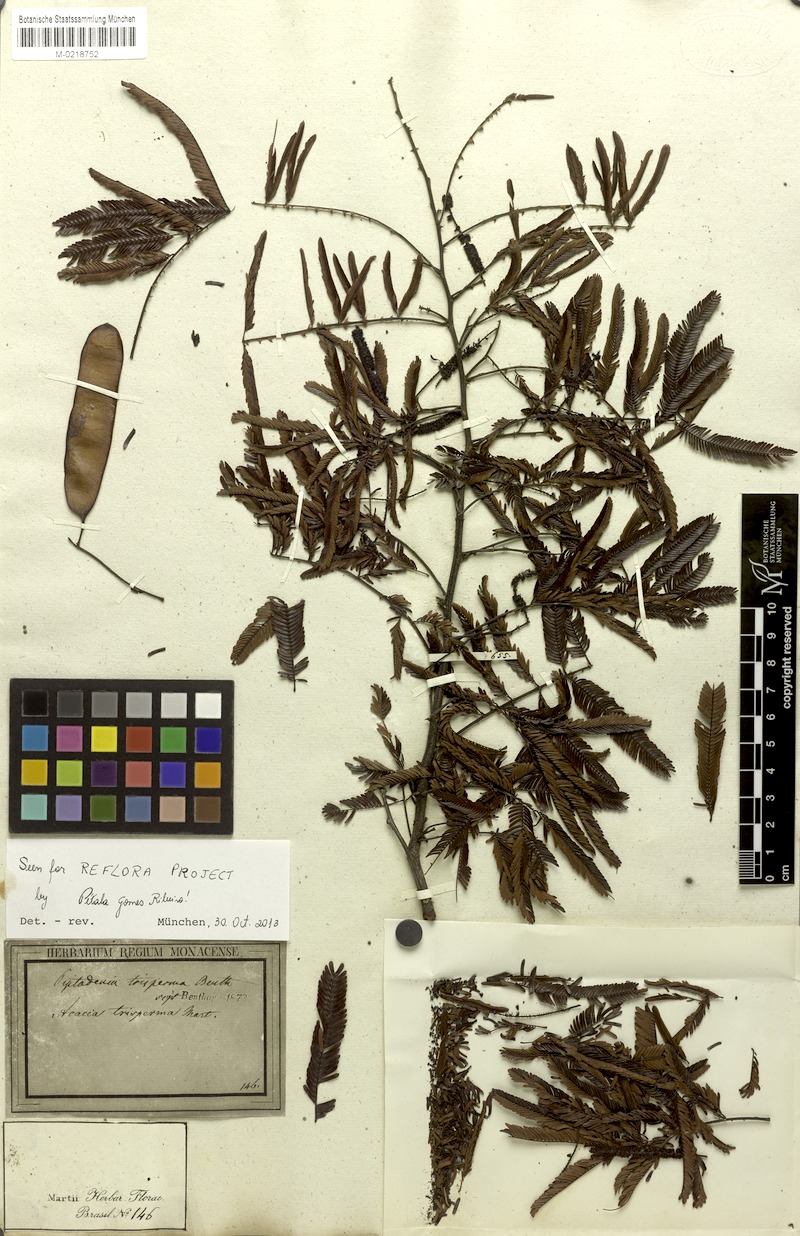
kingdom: Plantae
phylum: Tracheophyta
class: Magnoliopsida
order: Fabales
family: Fabaceae
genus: Piptadenia
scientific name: Piptadenia trisperma
